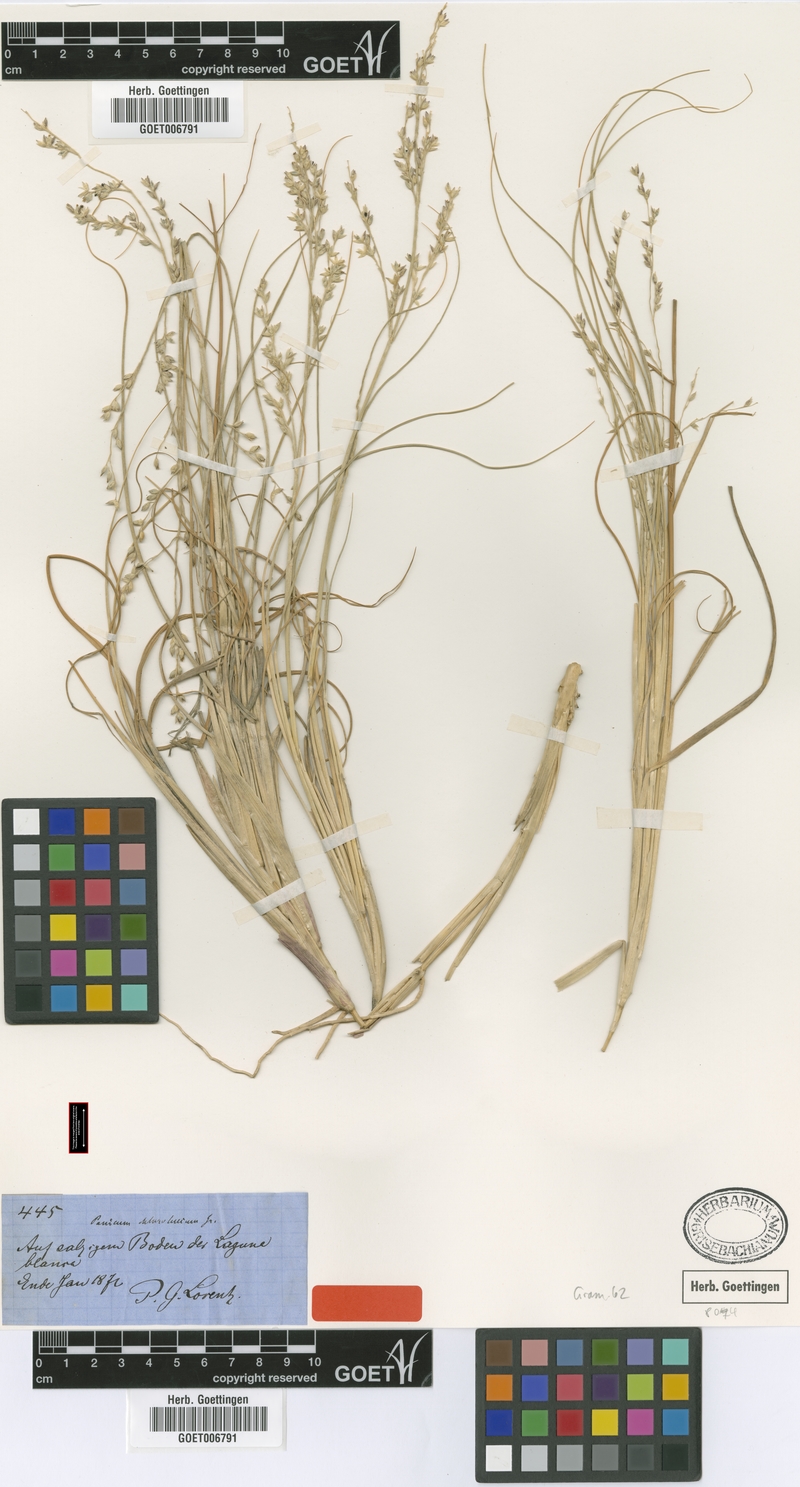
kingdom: Plantae
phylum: Tracheophyta
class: Liliopsida
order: Poales
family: Poaceae
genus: Panicum
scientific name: Panicum chloroleucum
